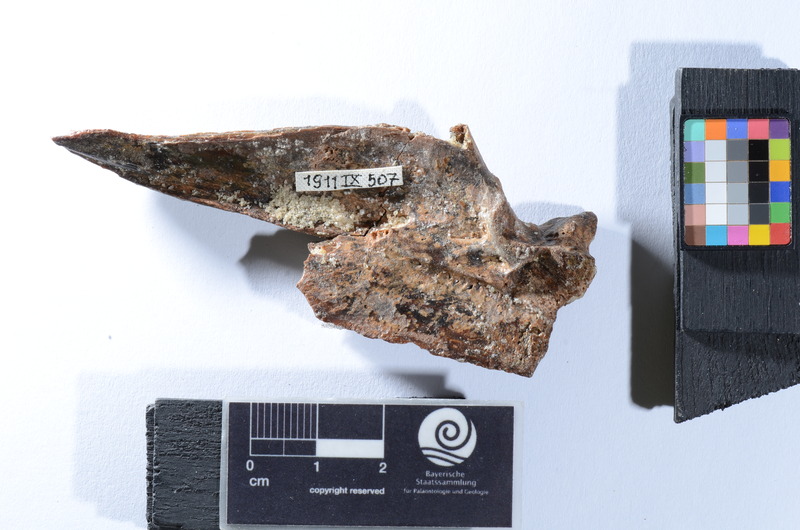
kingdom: Animalia
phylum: Chordata
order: Perciformes
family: Latidae
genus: Lates
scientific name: Lates niloticus
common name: Nile perch
